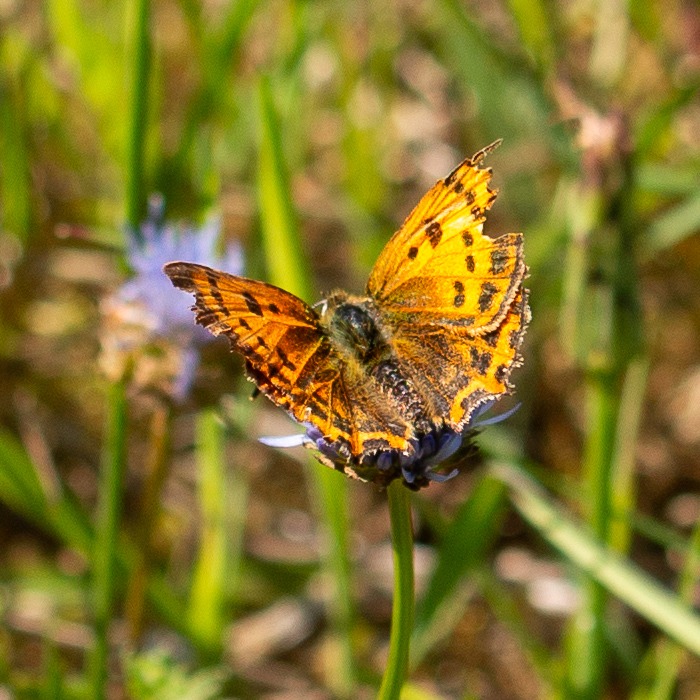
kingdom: Animalia
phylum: Arthropoda
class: Insecta
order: Lepidoptera
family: Lycaenidae
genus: Lycaena
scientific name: Lycaena virgaureae
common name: Dukatsommerfugl
